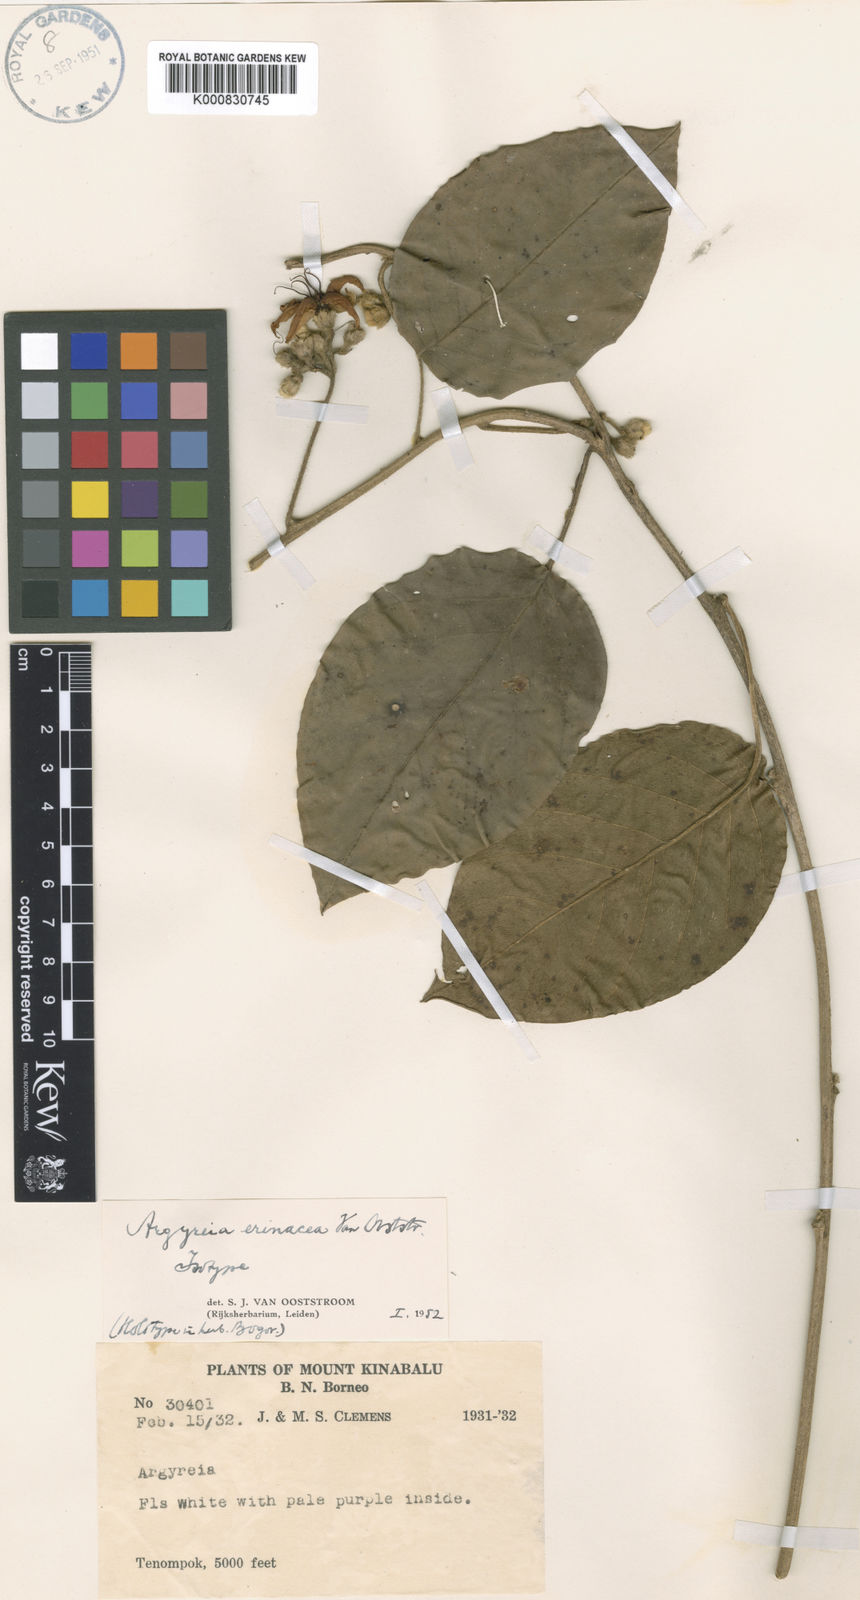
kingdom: Plantae
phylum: Tracheophyta
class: Magnoliopsida
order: Solanales
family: Convolvulaceae
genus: Argyreia
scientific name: Argyreia erinacea
